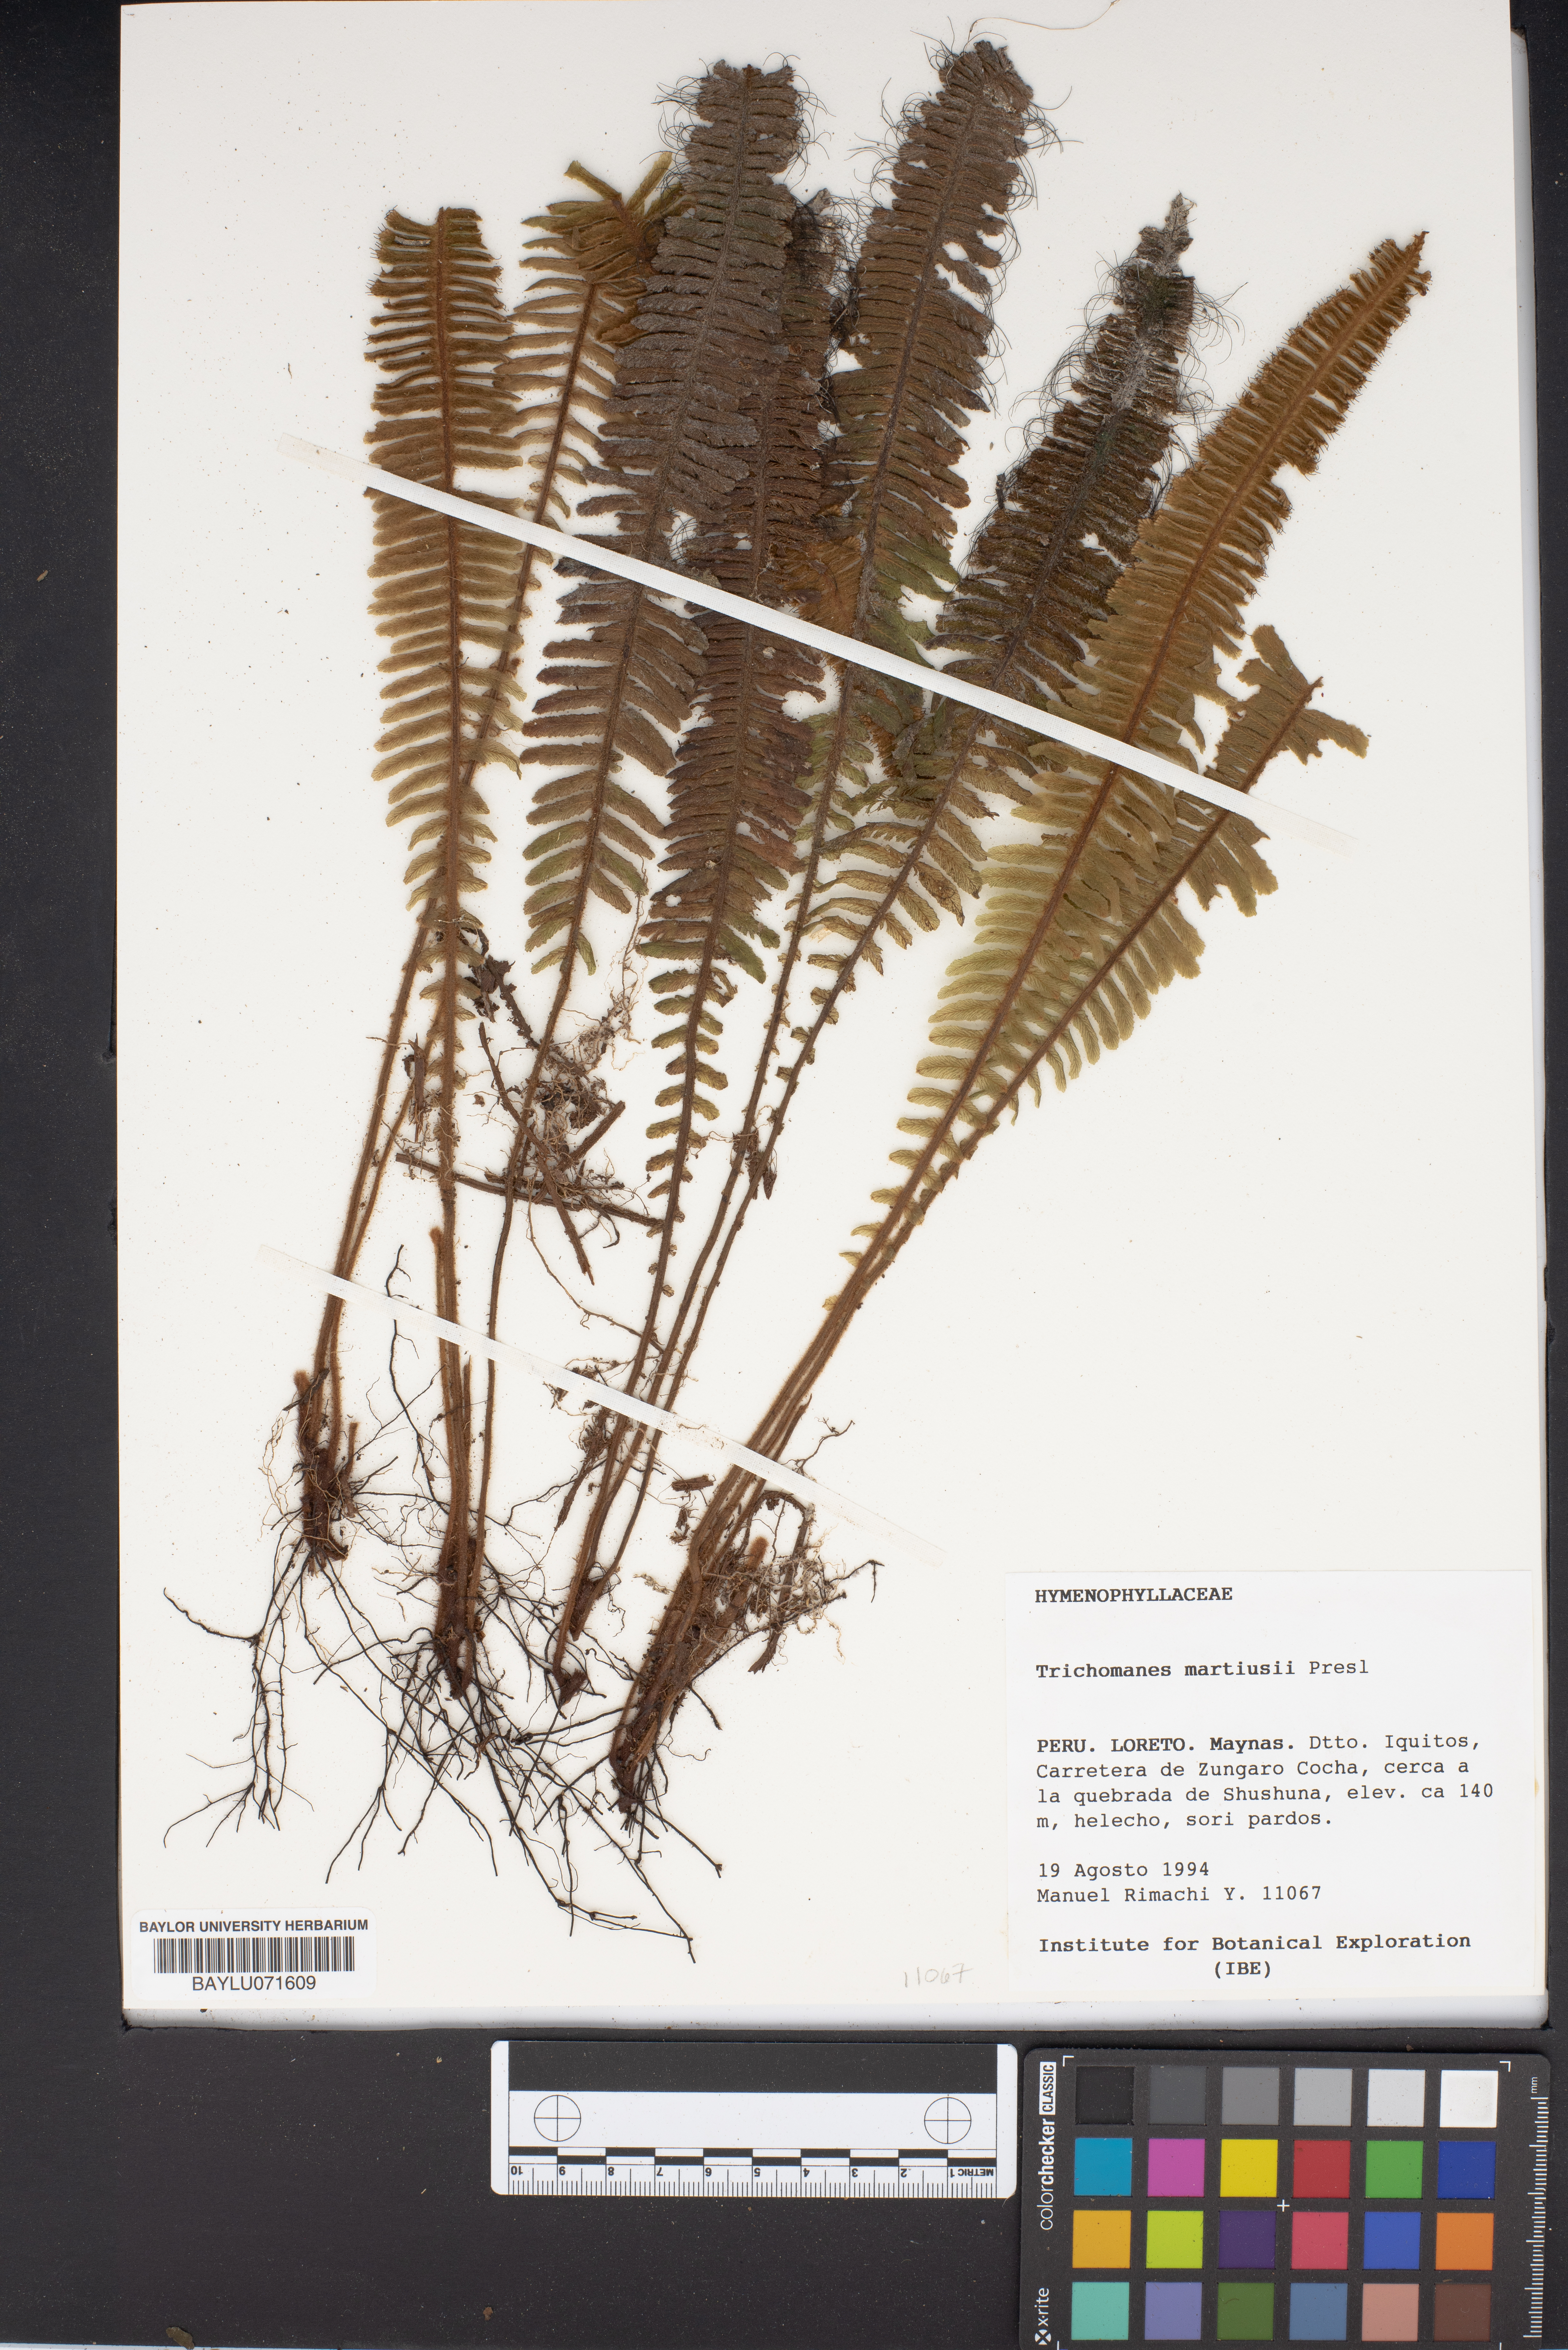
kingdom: Plantae
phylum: Tracheophyta
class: Polypodiopsida
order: Hymenophyllales
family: Hymenophyllaceae
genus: Trichomanes
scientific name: Trichomanes martiusii
